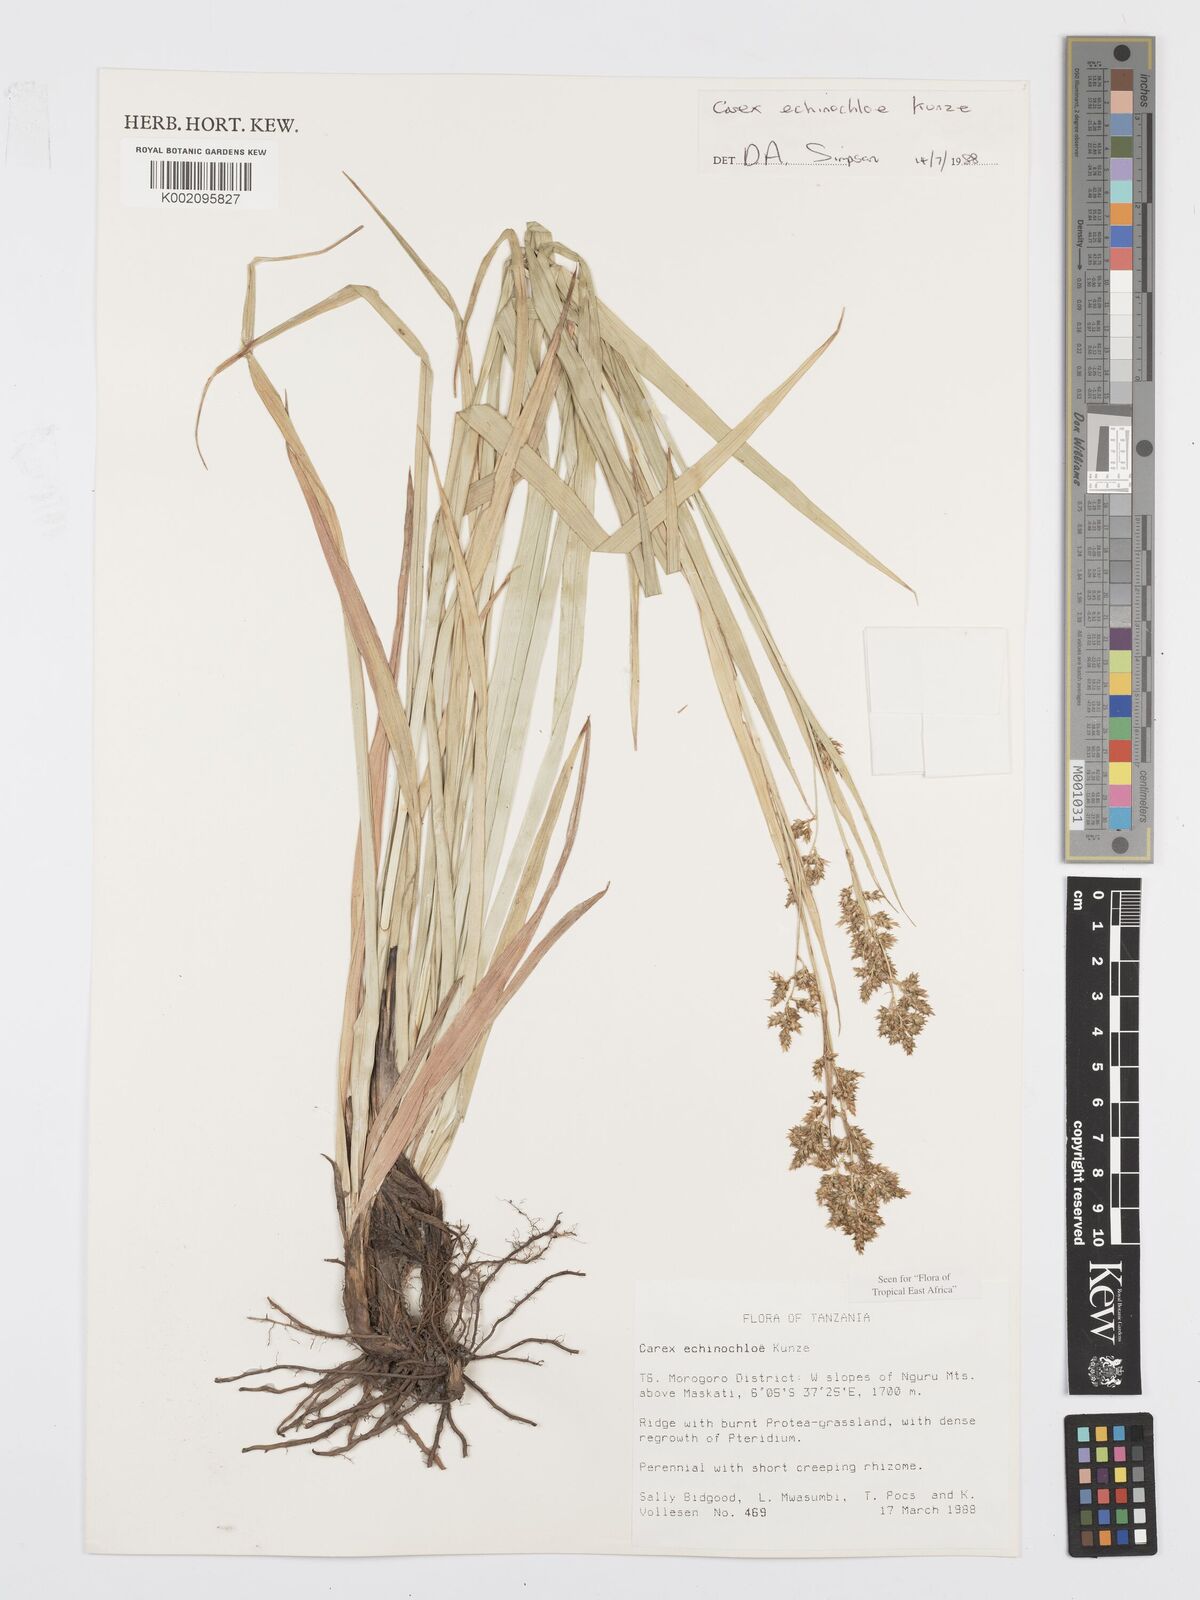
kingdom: Plantae
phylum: Tracheophyta
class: Liliopsida
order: Poales
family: Cyperaceae
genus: Carex
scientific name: Carex echinochloe
